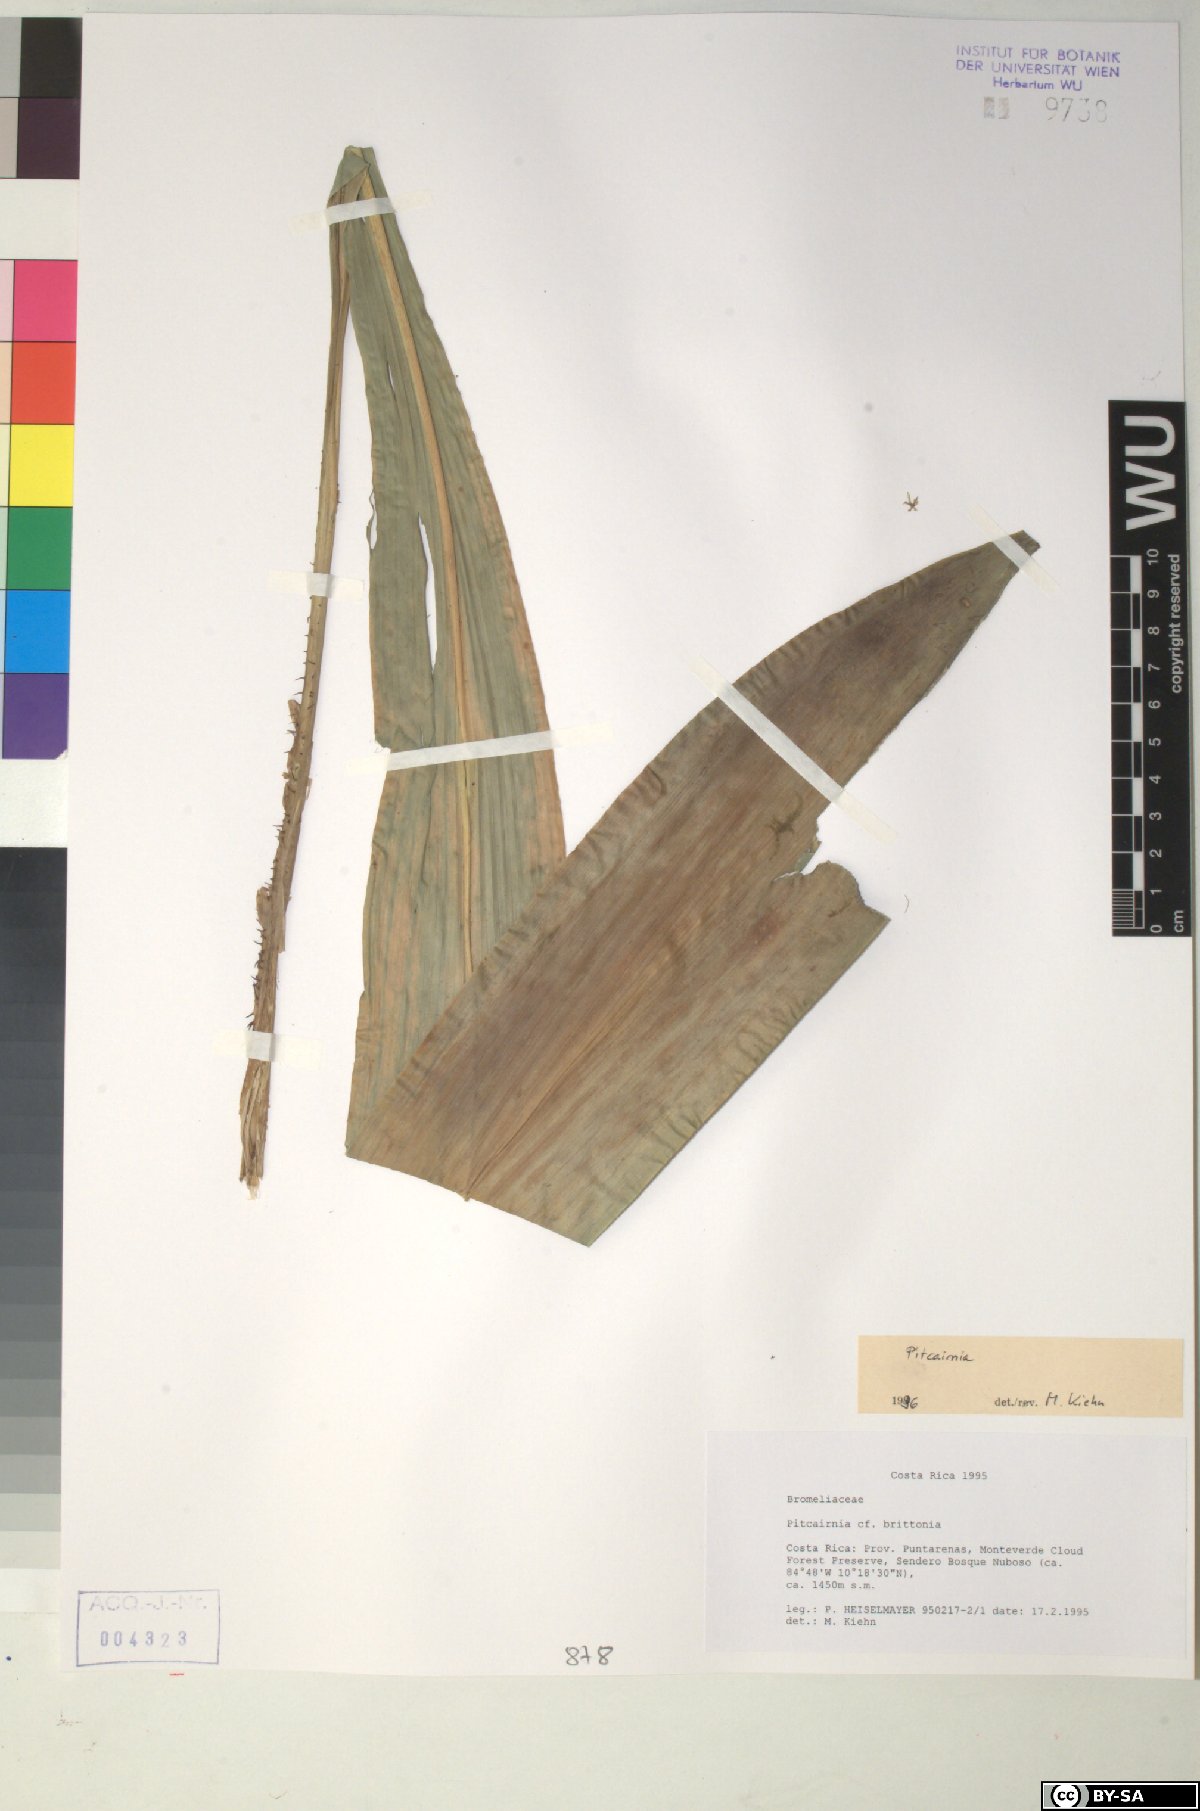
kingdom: Plantae
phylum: Tracheophyta
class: Liliopsida
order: Poales
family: Bromeliaceae
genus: Pitcairnia
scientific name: Pitcairnia brittoniana
